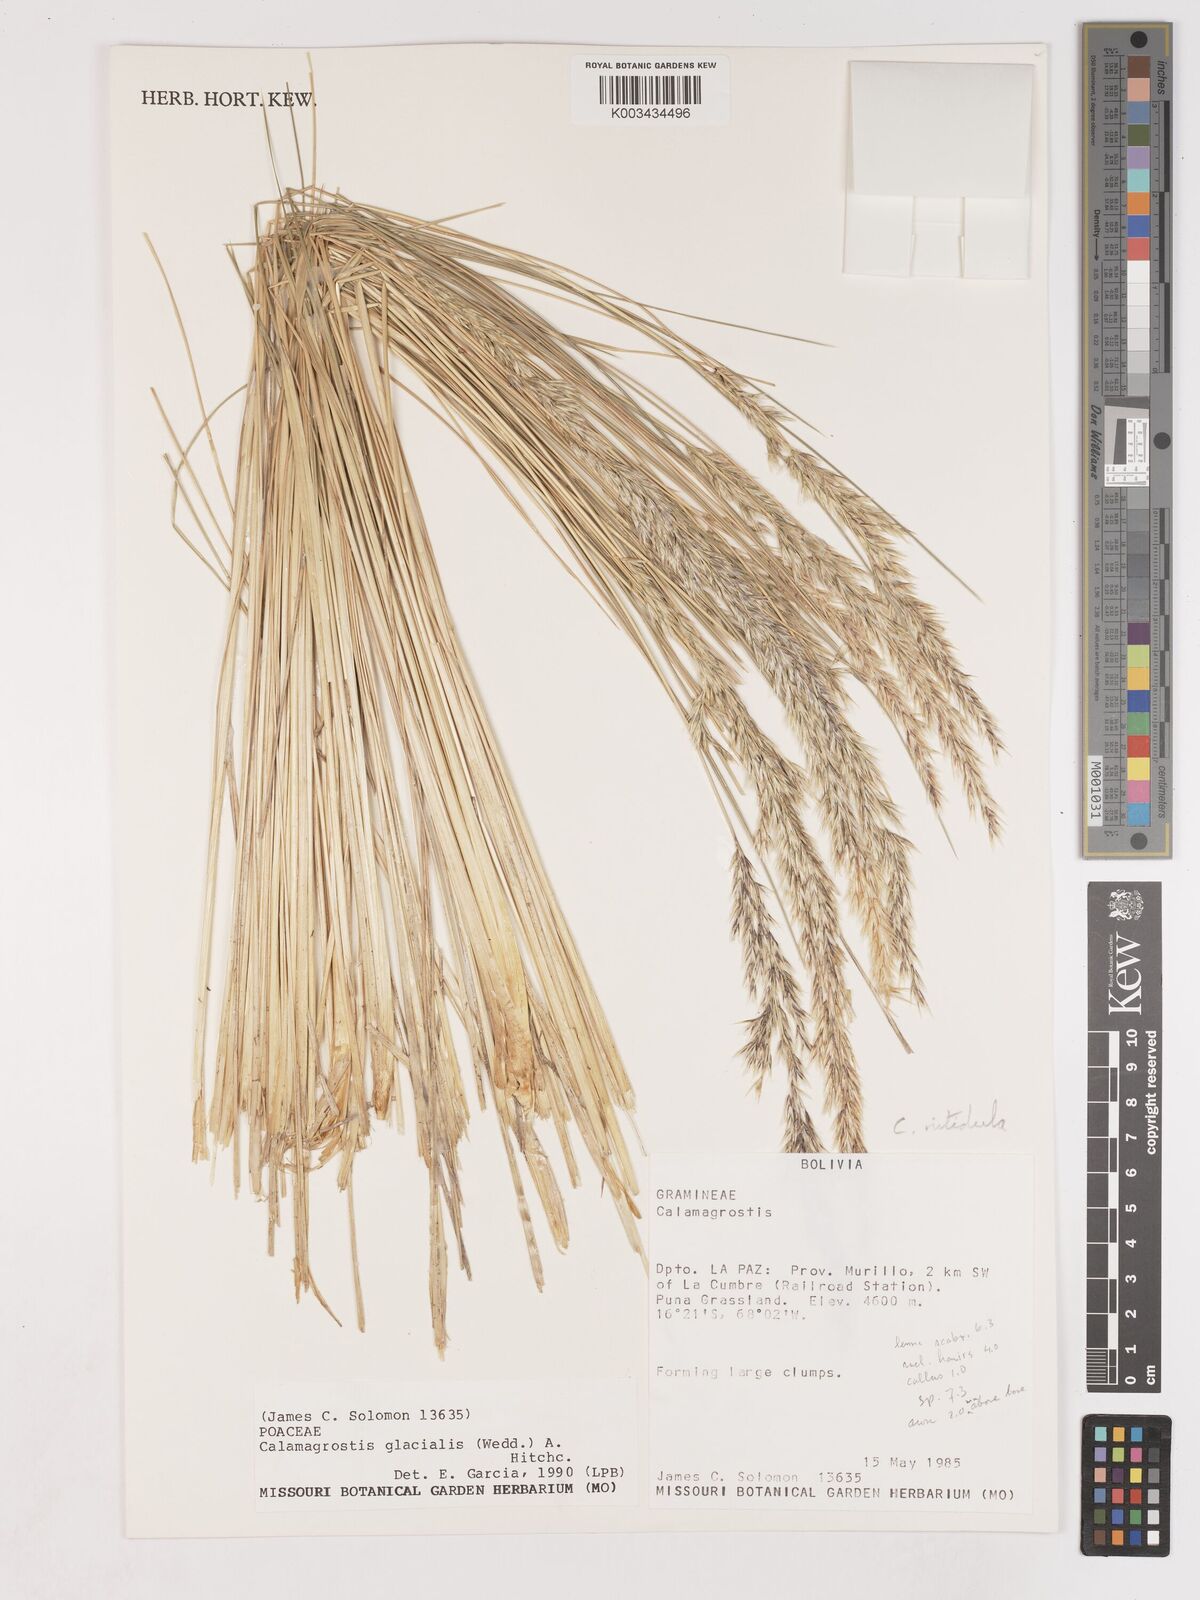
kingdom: Plantae
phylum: Tracheophyta
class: Liliopsida
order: Poales
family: Poaceae
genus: Cinnagrostis
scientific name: Cinnagrostis rigida
